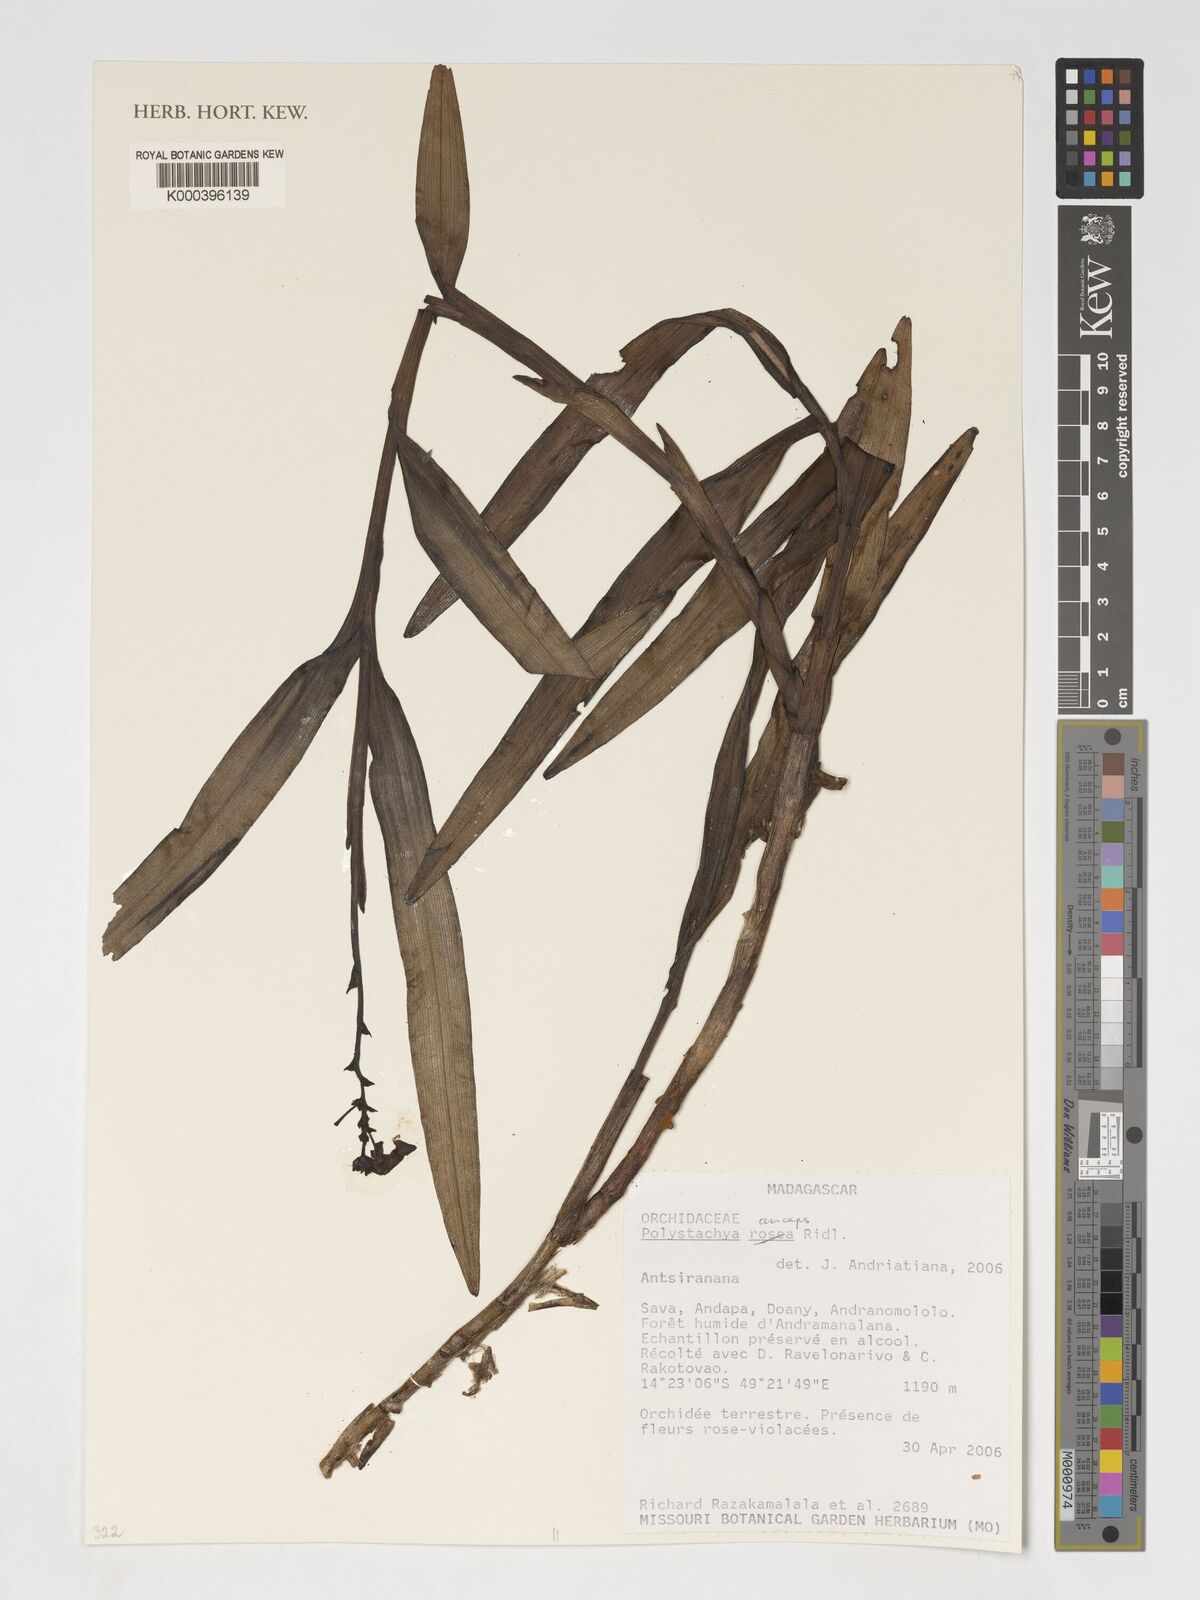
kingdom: Plantae
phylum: Tracheophyta
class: Liliopsida
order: Asparagales
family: Orchidaceae
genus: Polystachya
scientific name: Polystachya anceps
